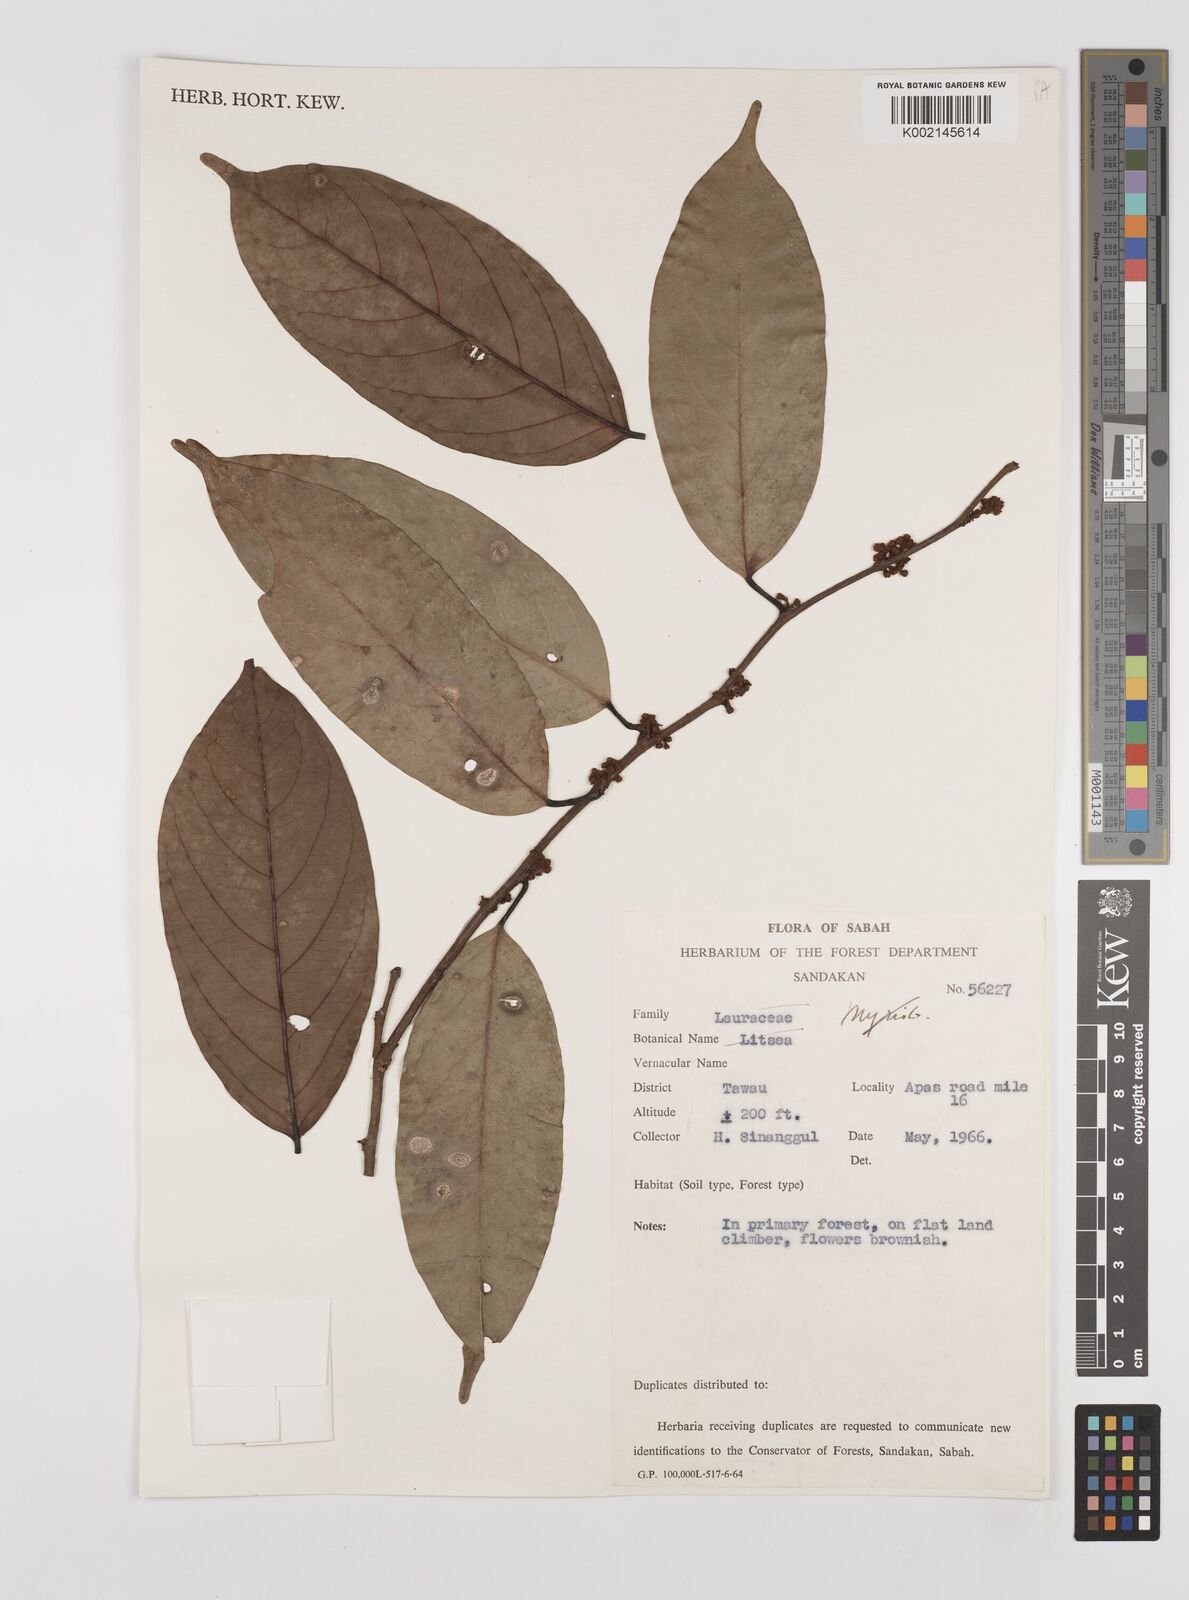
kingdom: Plantae
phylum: Tracheophyta
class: Magnoliopsida
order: Laurales
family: Lauraceae
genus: Litsea
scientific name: Litsea
